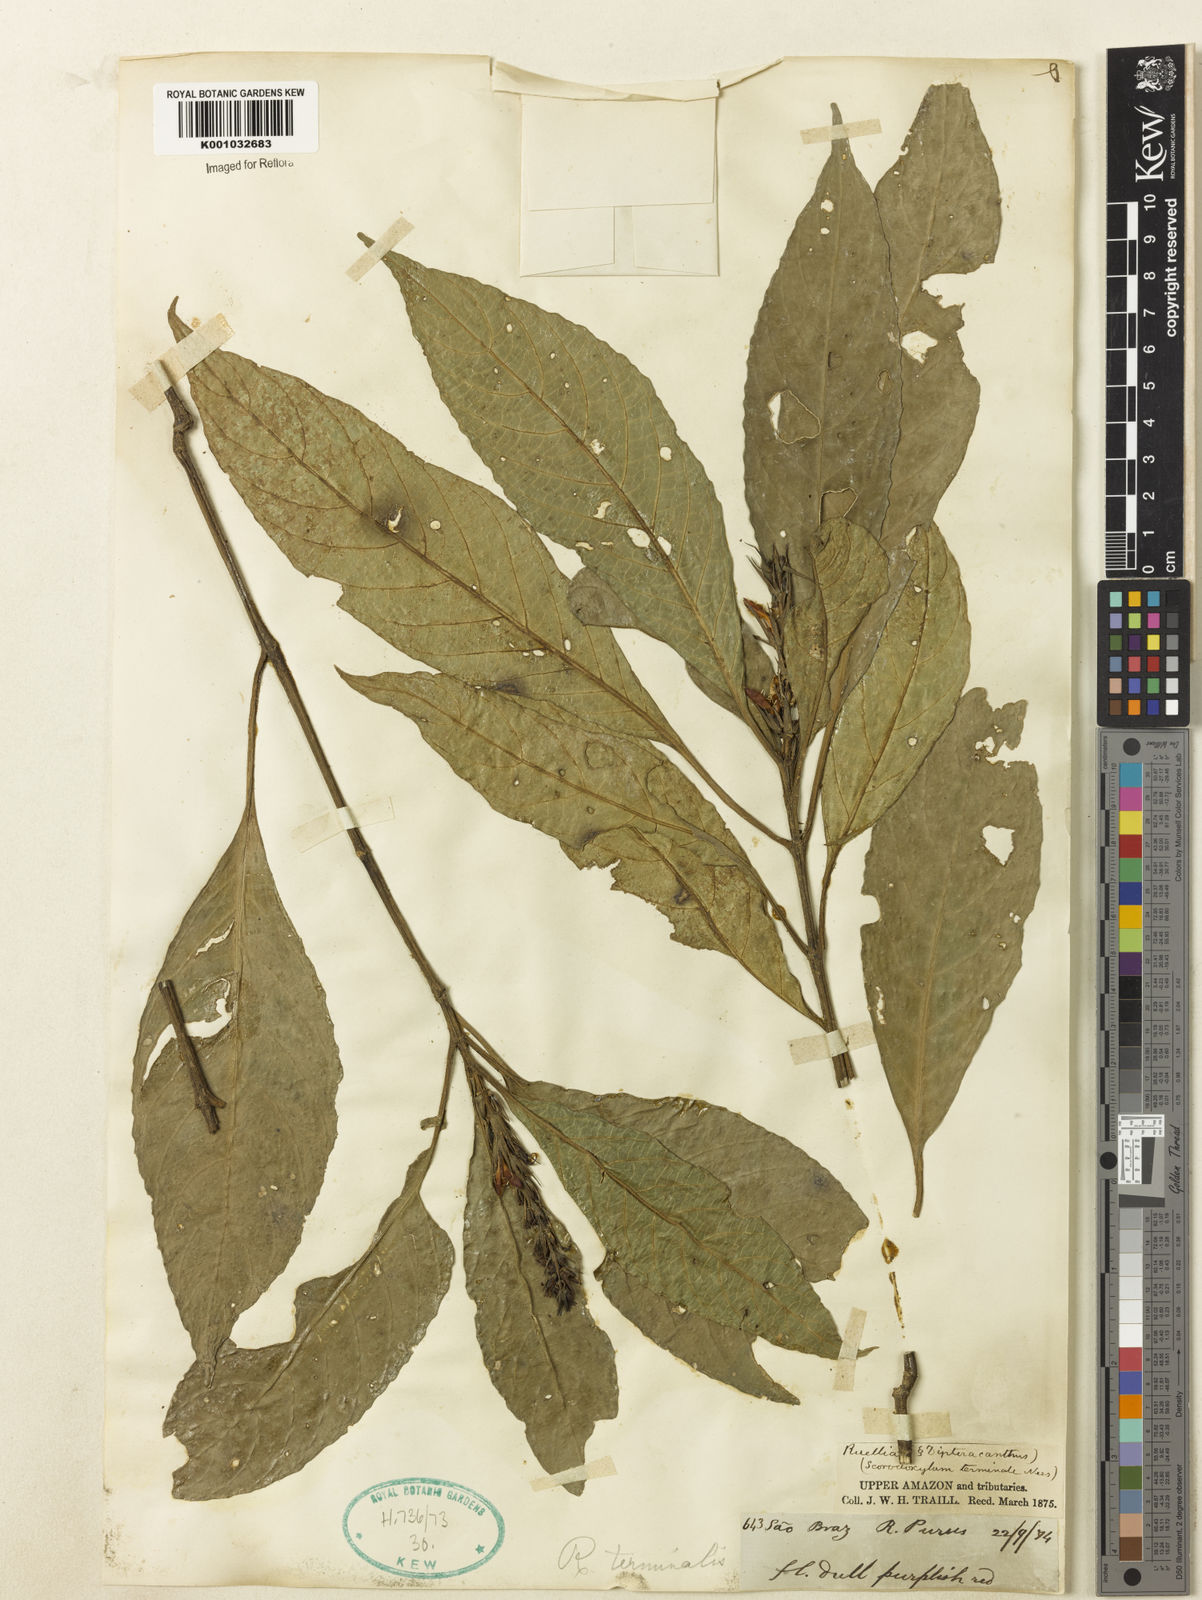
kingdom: Plantae
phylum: Tracheophyta
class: Magnoliopsida
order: Lamiales
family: Acanthaceae
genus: Ruellia
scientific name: Ruellia
